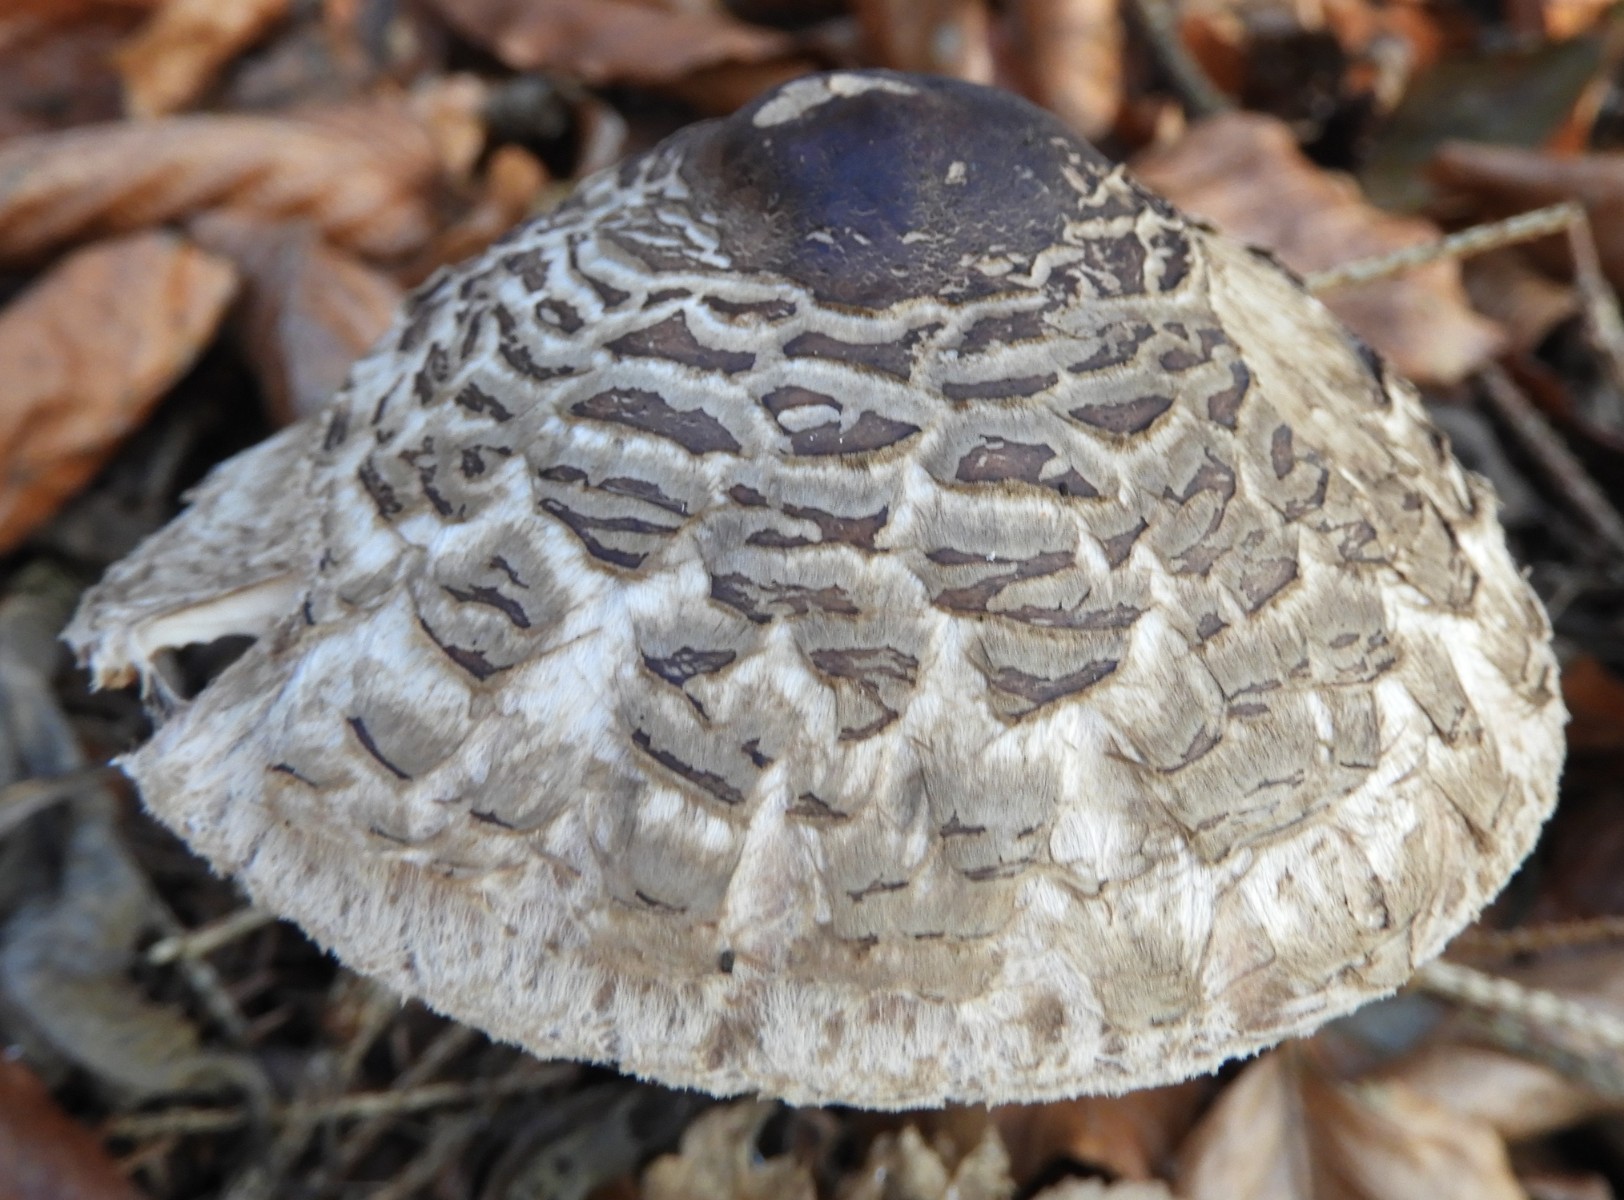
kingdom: Fungi
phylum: Basidiomycota
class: Agaricomycetes
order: Agaricales
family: Agaricaceae
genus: Chlorophyllum
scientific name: Chlorophyllum olivieri
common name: almindelig rabarberhat
